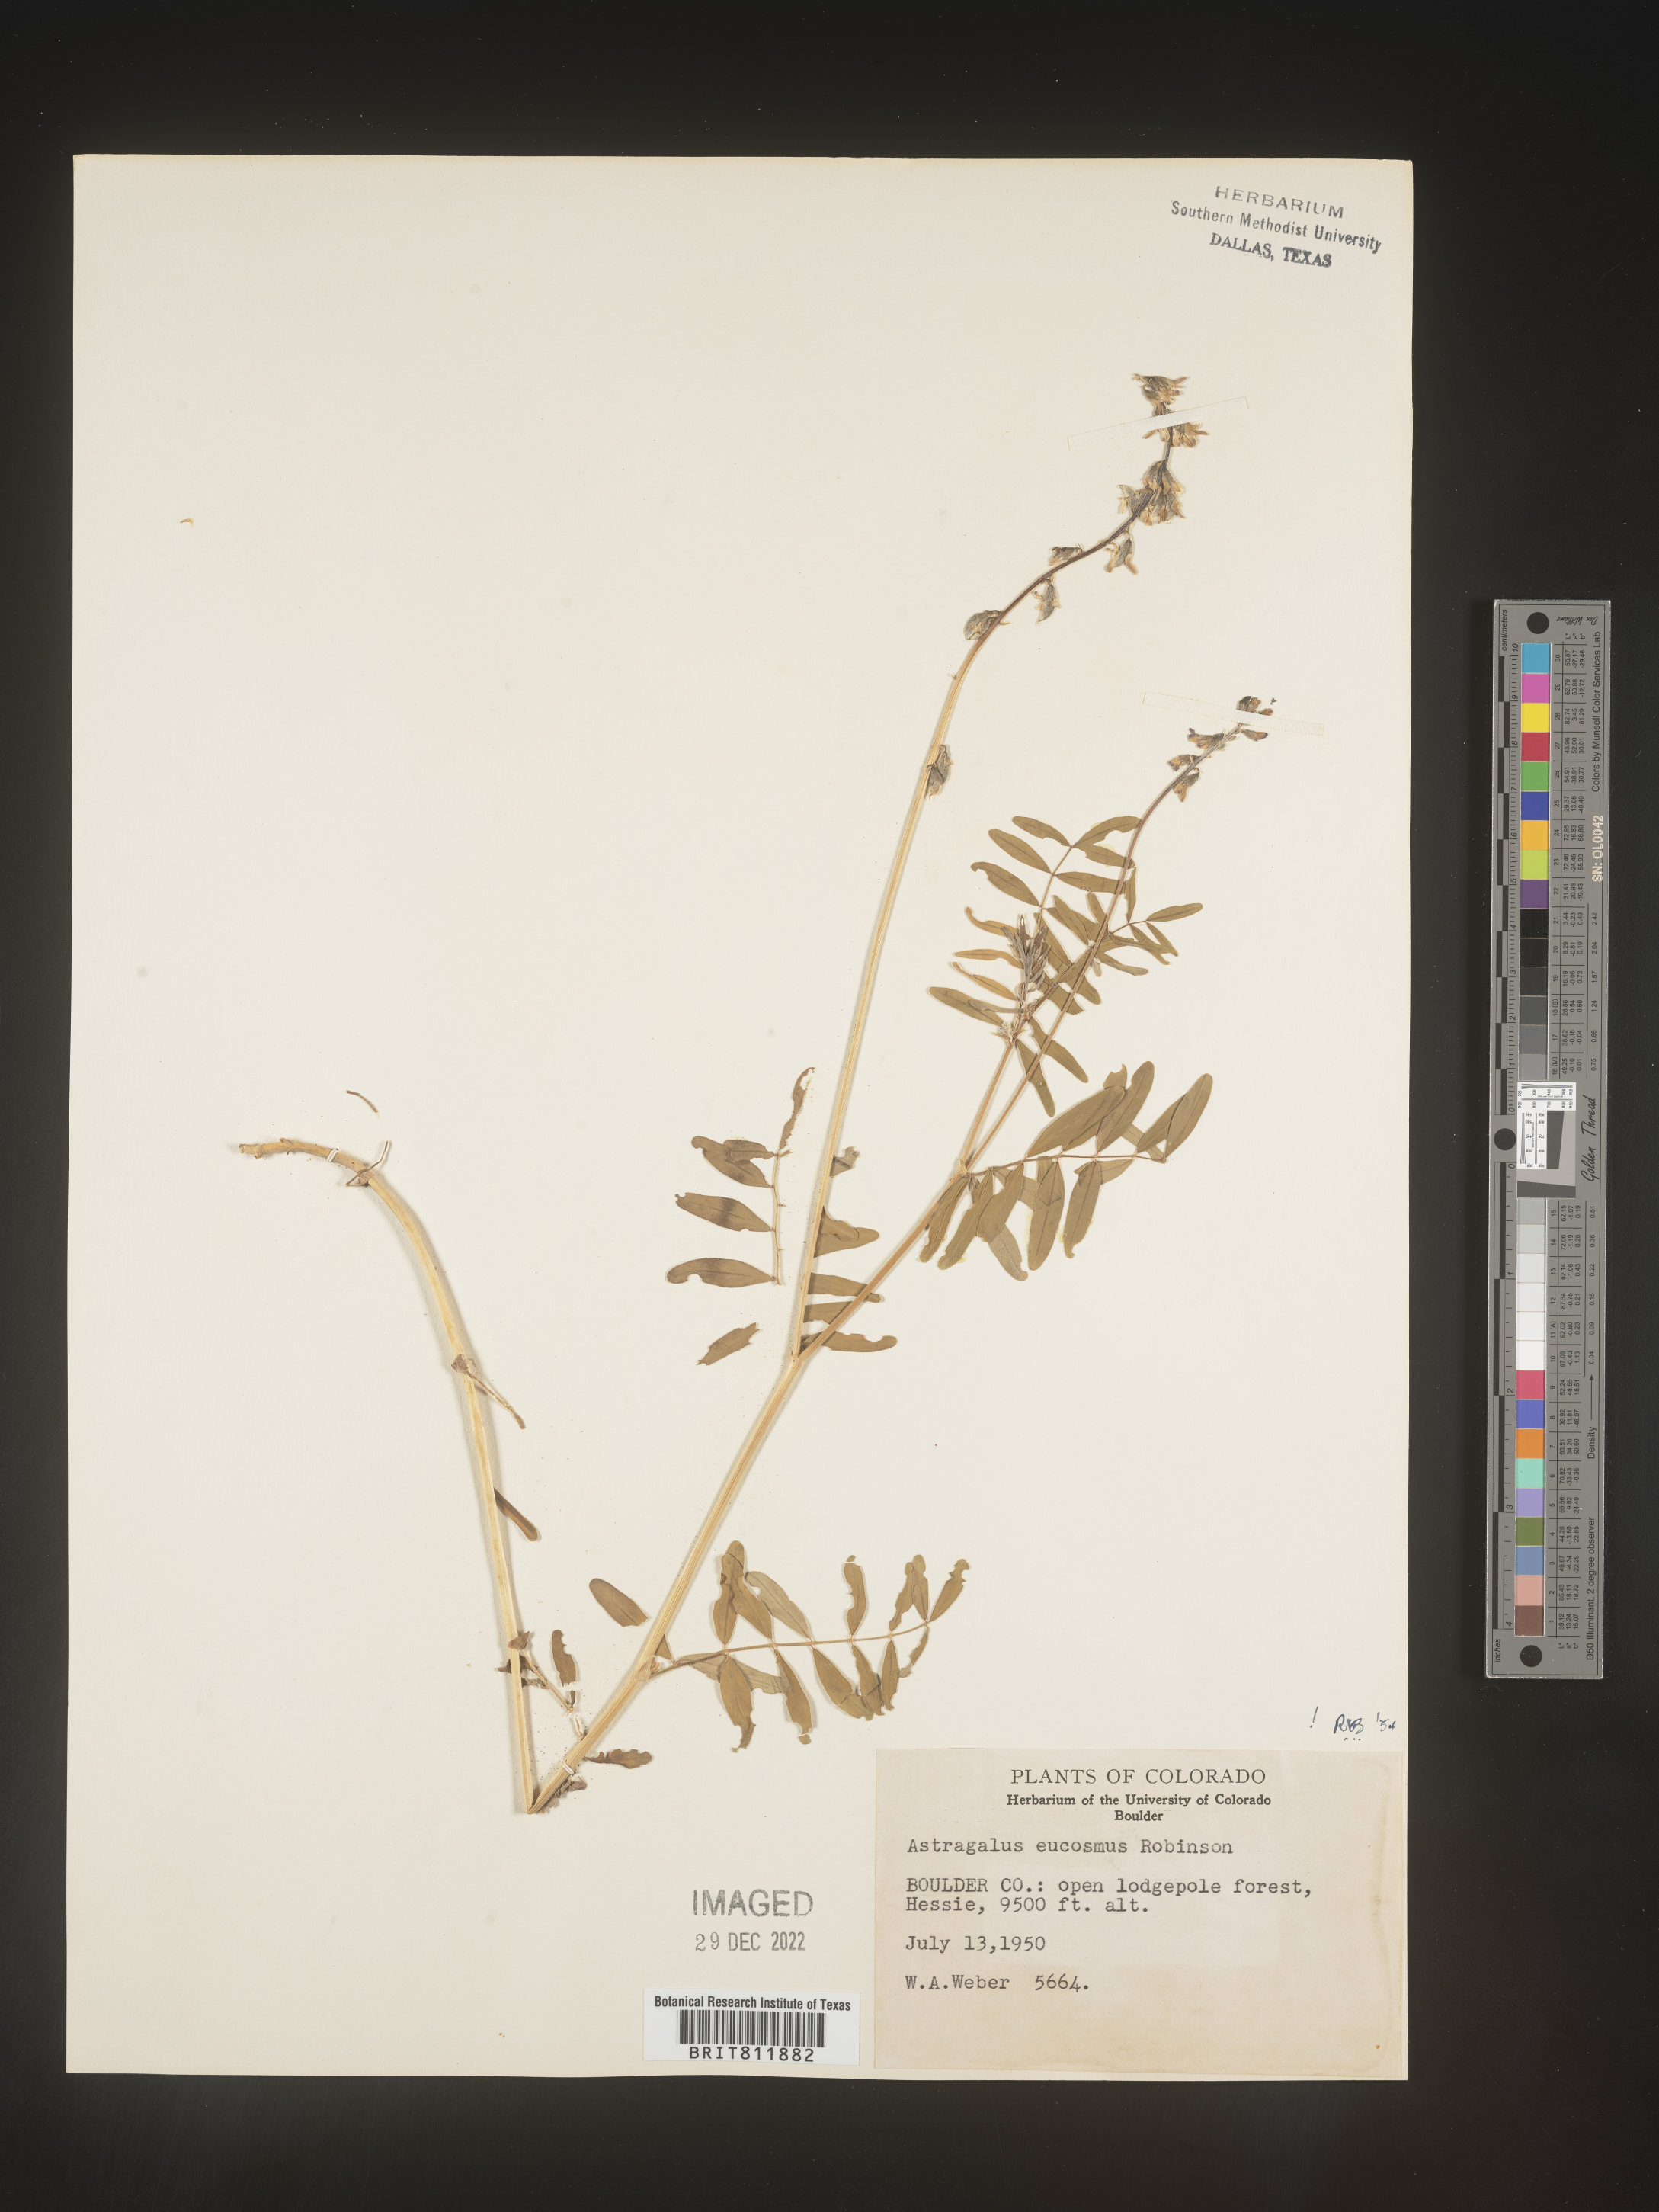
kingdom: Plantae
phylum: Tracheophyta
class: Magnoliopsida
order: Fabales
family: Fabaceae
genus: Astragalus
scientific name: Astragalus
